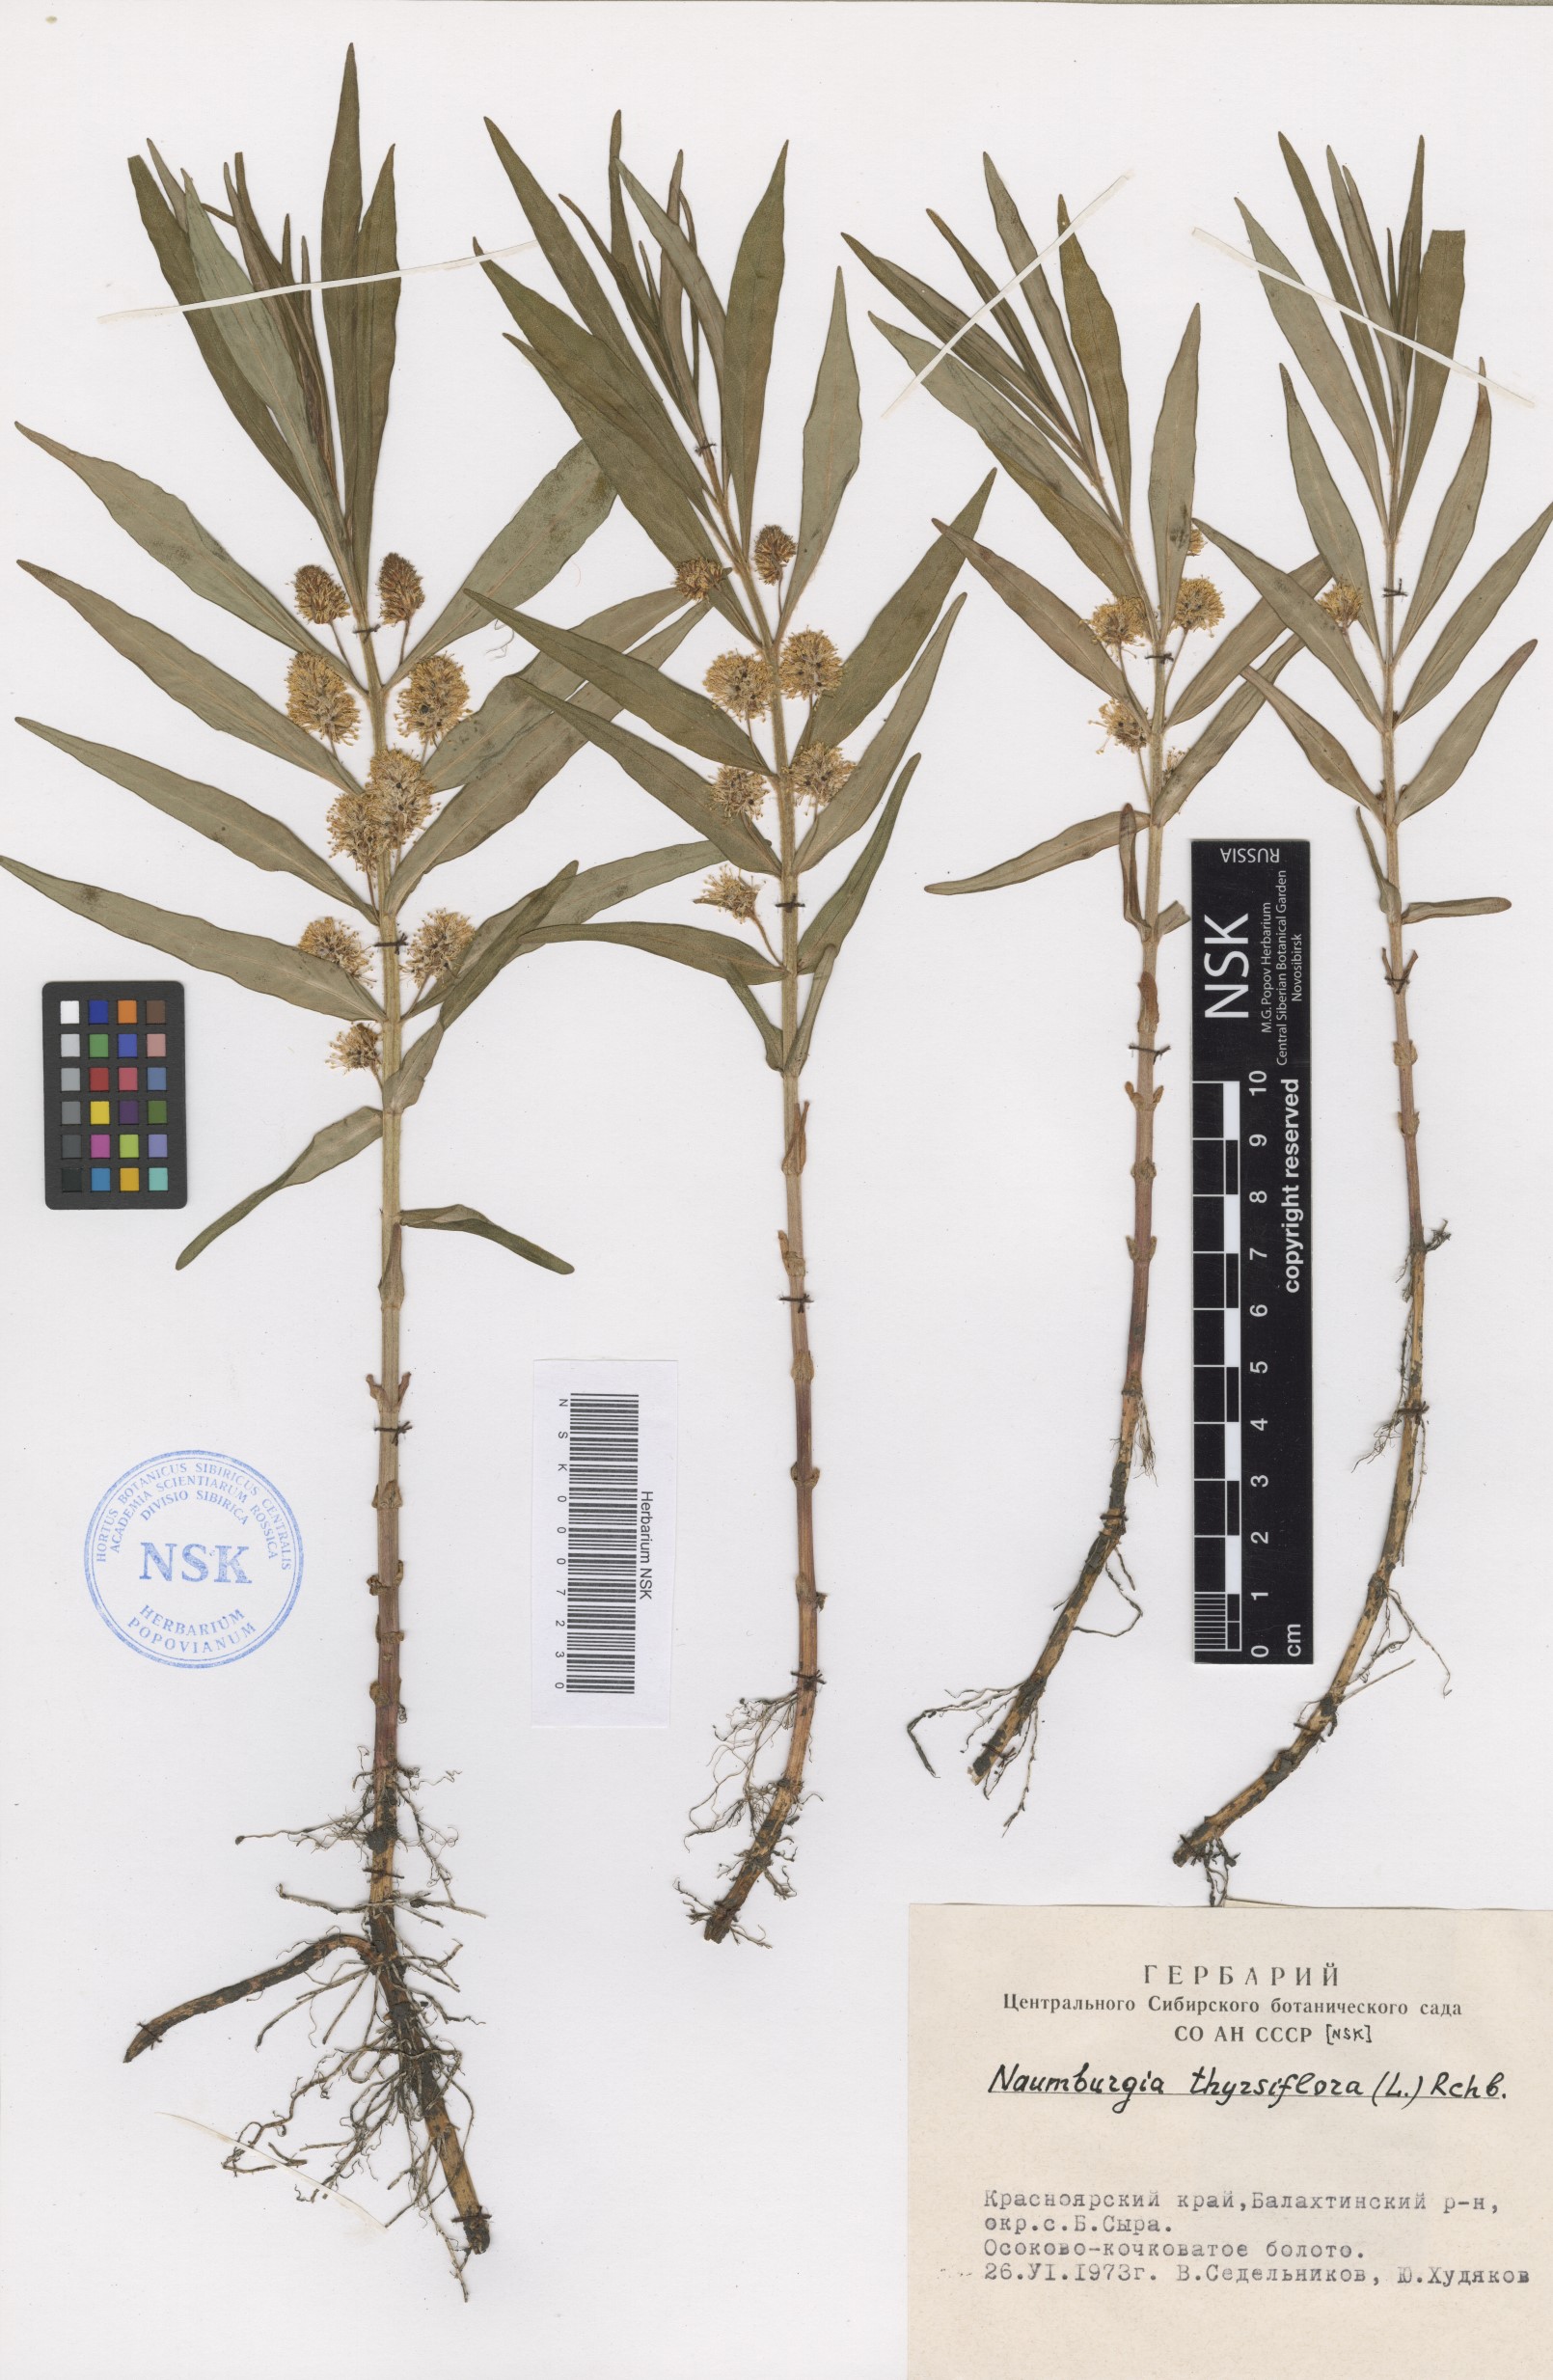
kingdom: Plantae
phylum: Tracheophyta
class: Magnoliopsida
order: Ericales
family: Primulaceae
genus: Lysimachia
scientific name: Lysimachia thyrsiflora
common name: Tufted loosestrife
